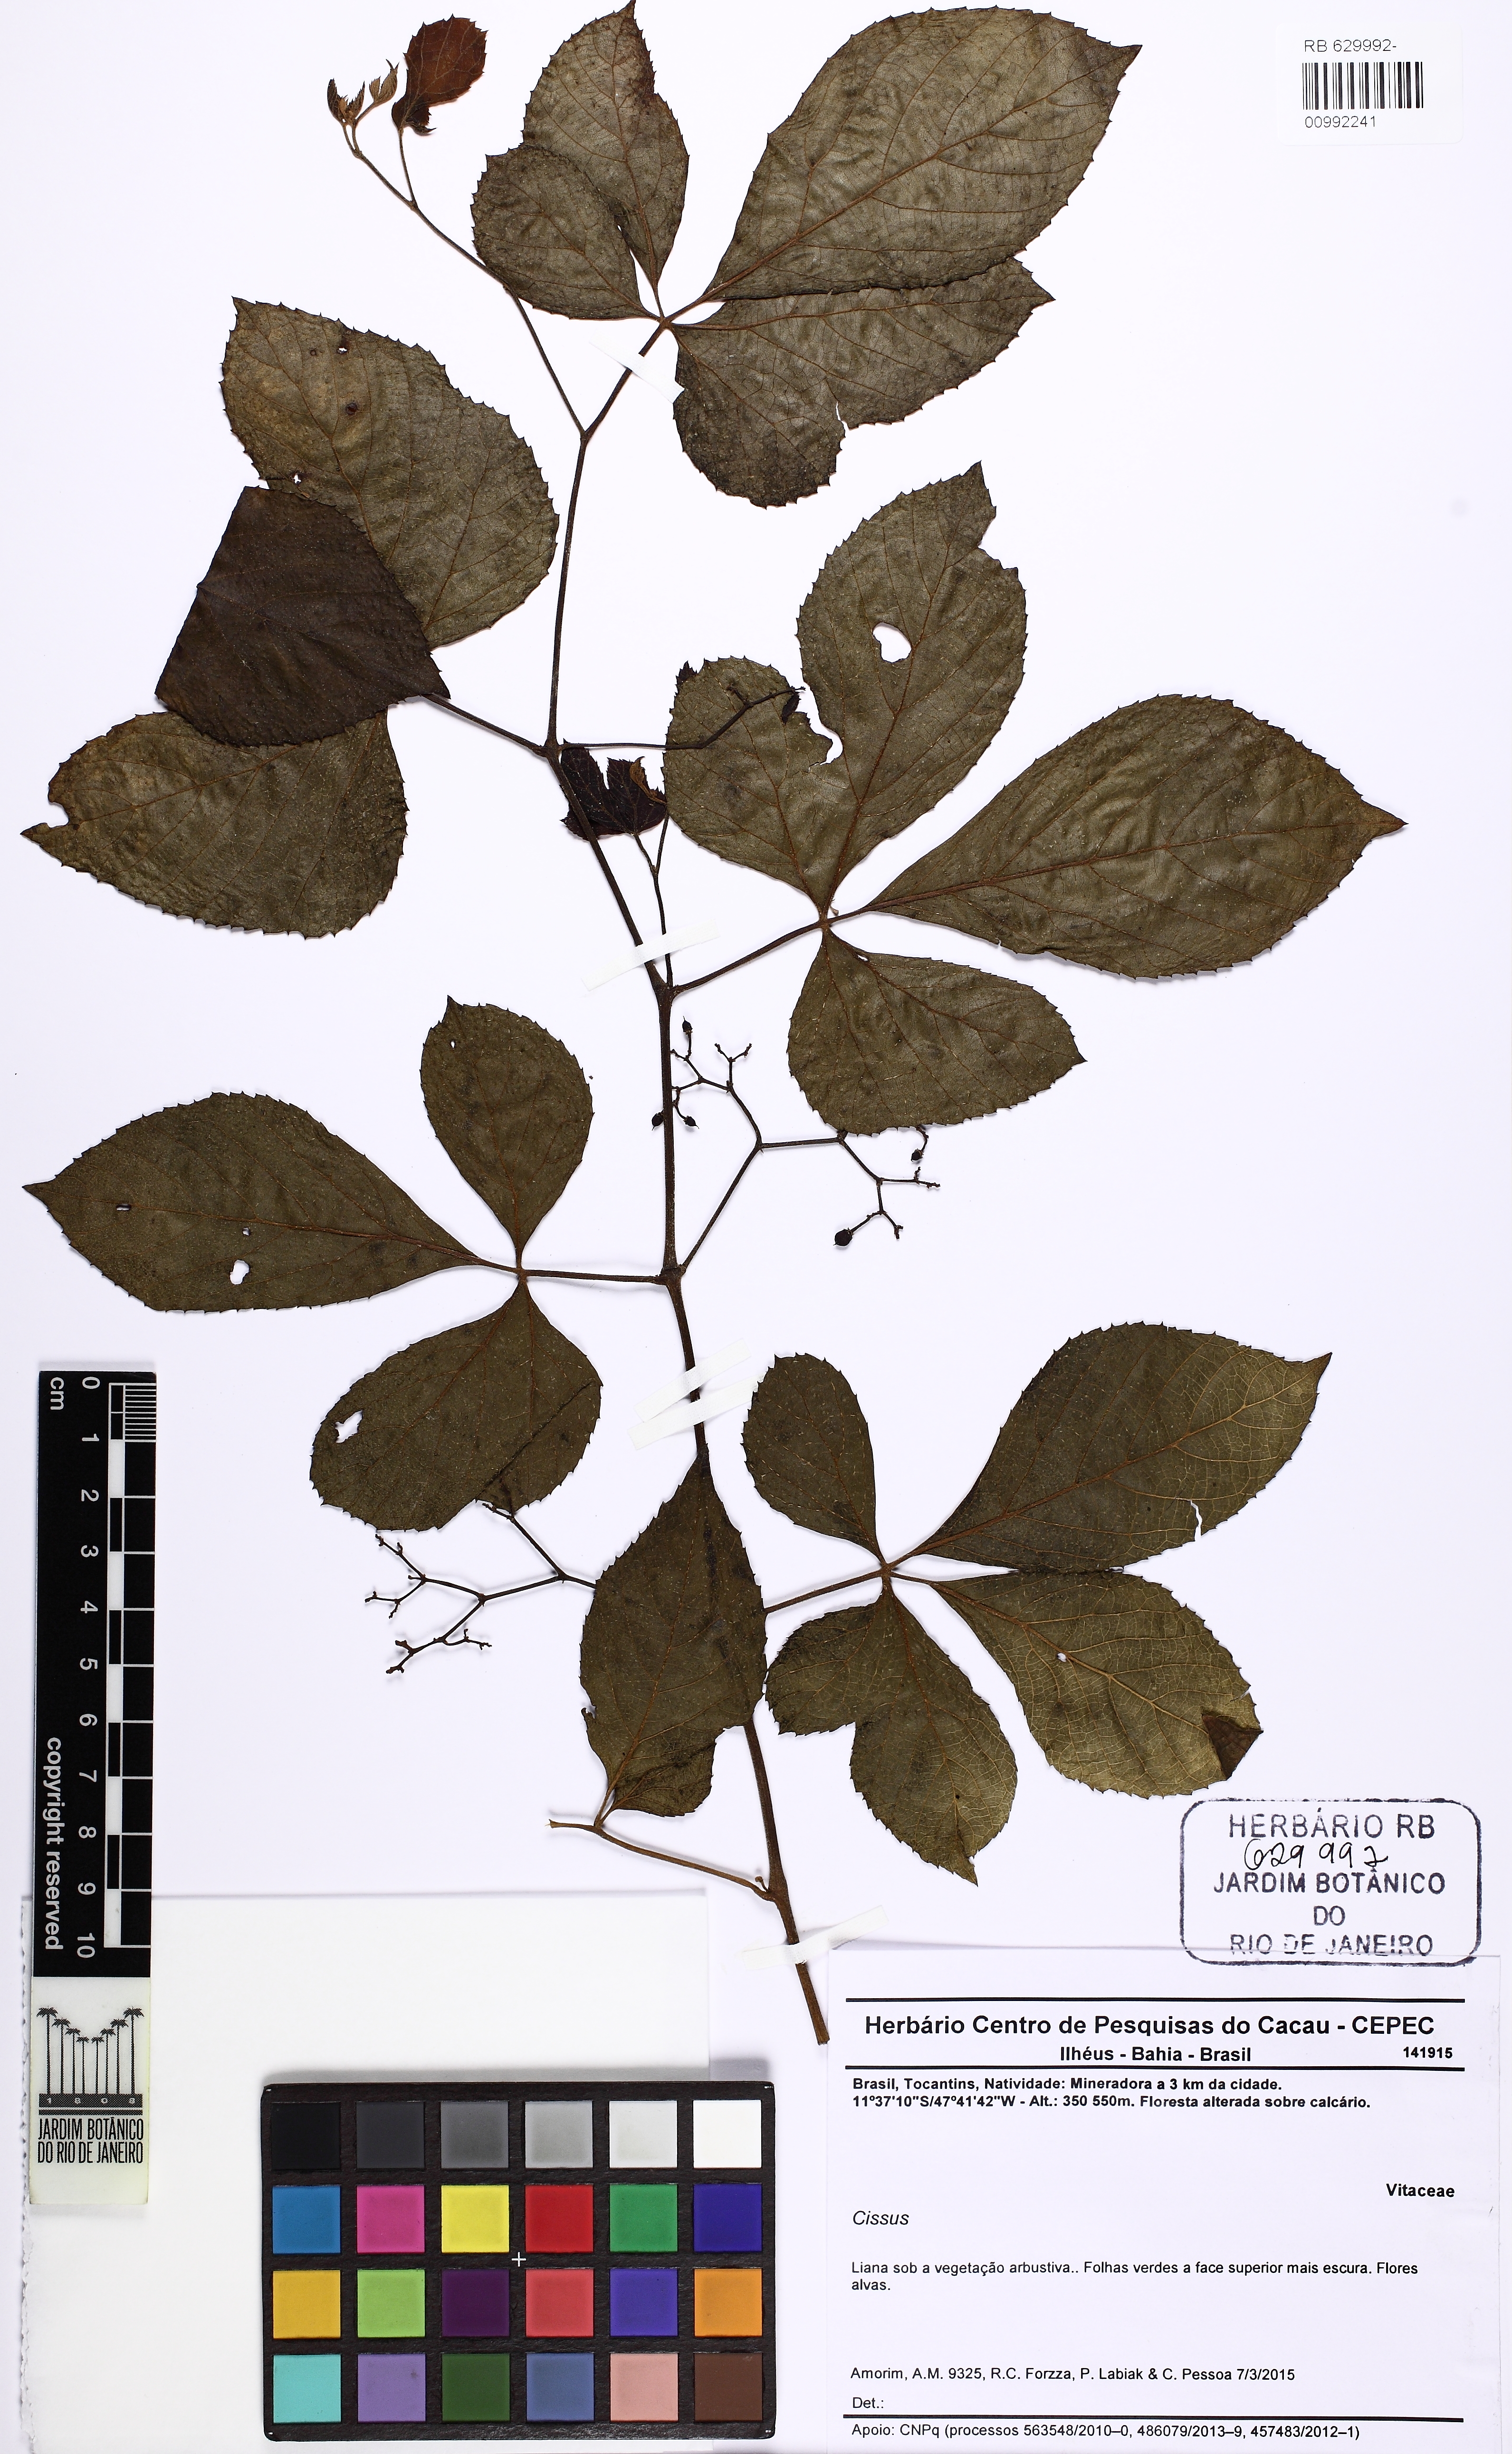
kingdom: Plantae
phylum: Tracheophyta
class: Magnoliopsida
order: Vitales
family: Vitaceae
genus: Cissus
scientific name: Cissus
